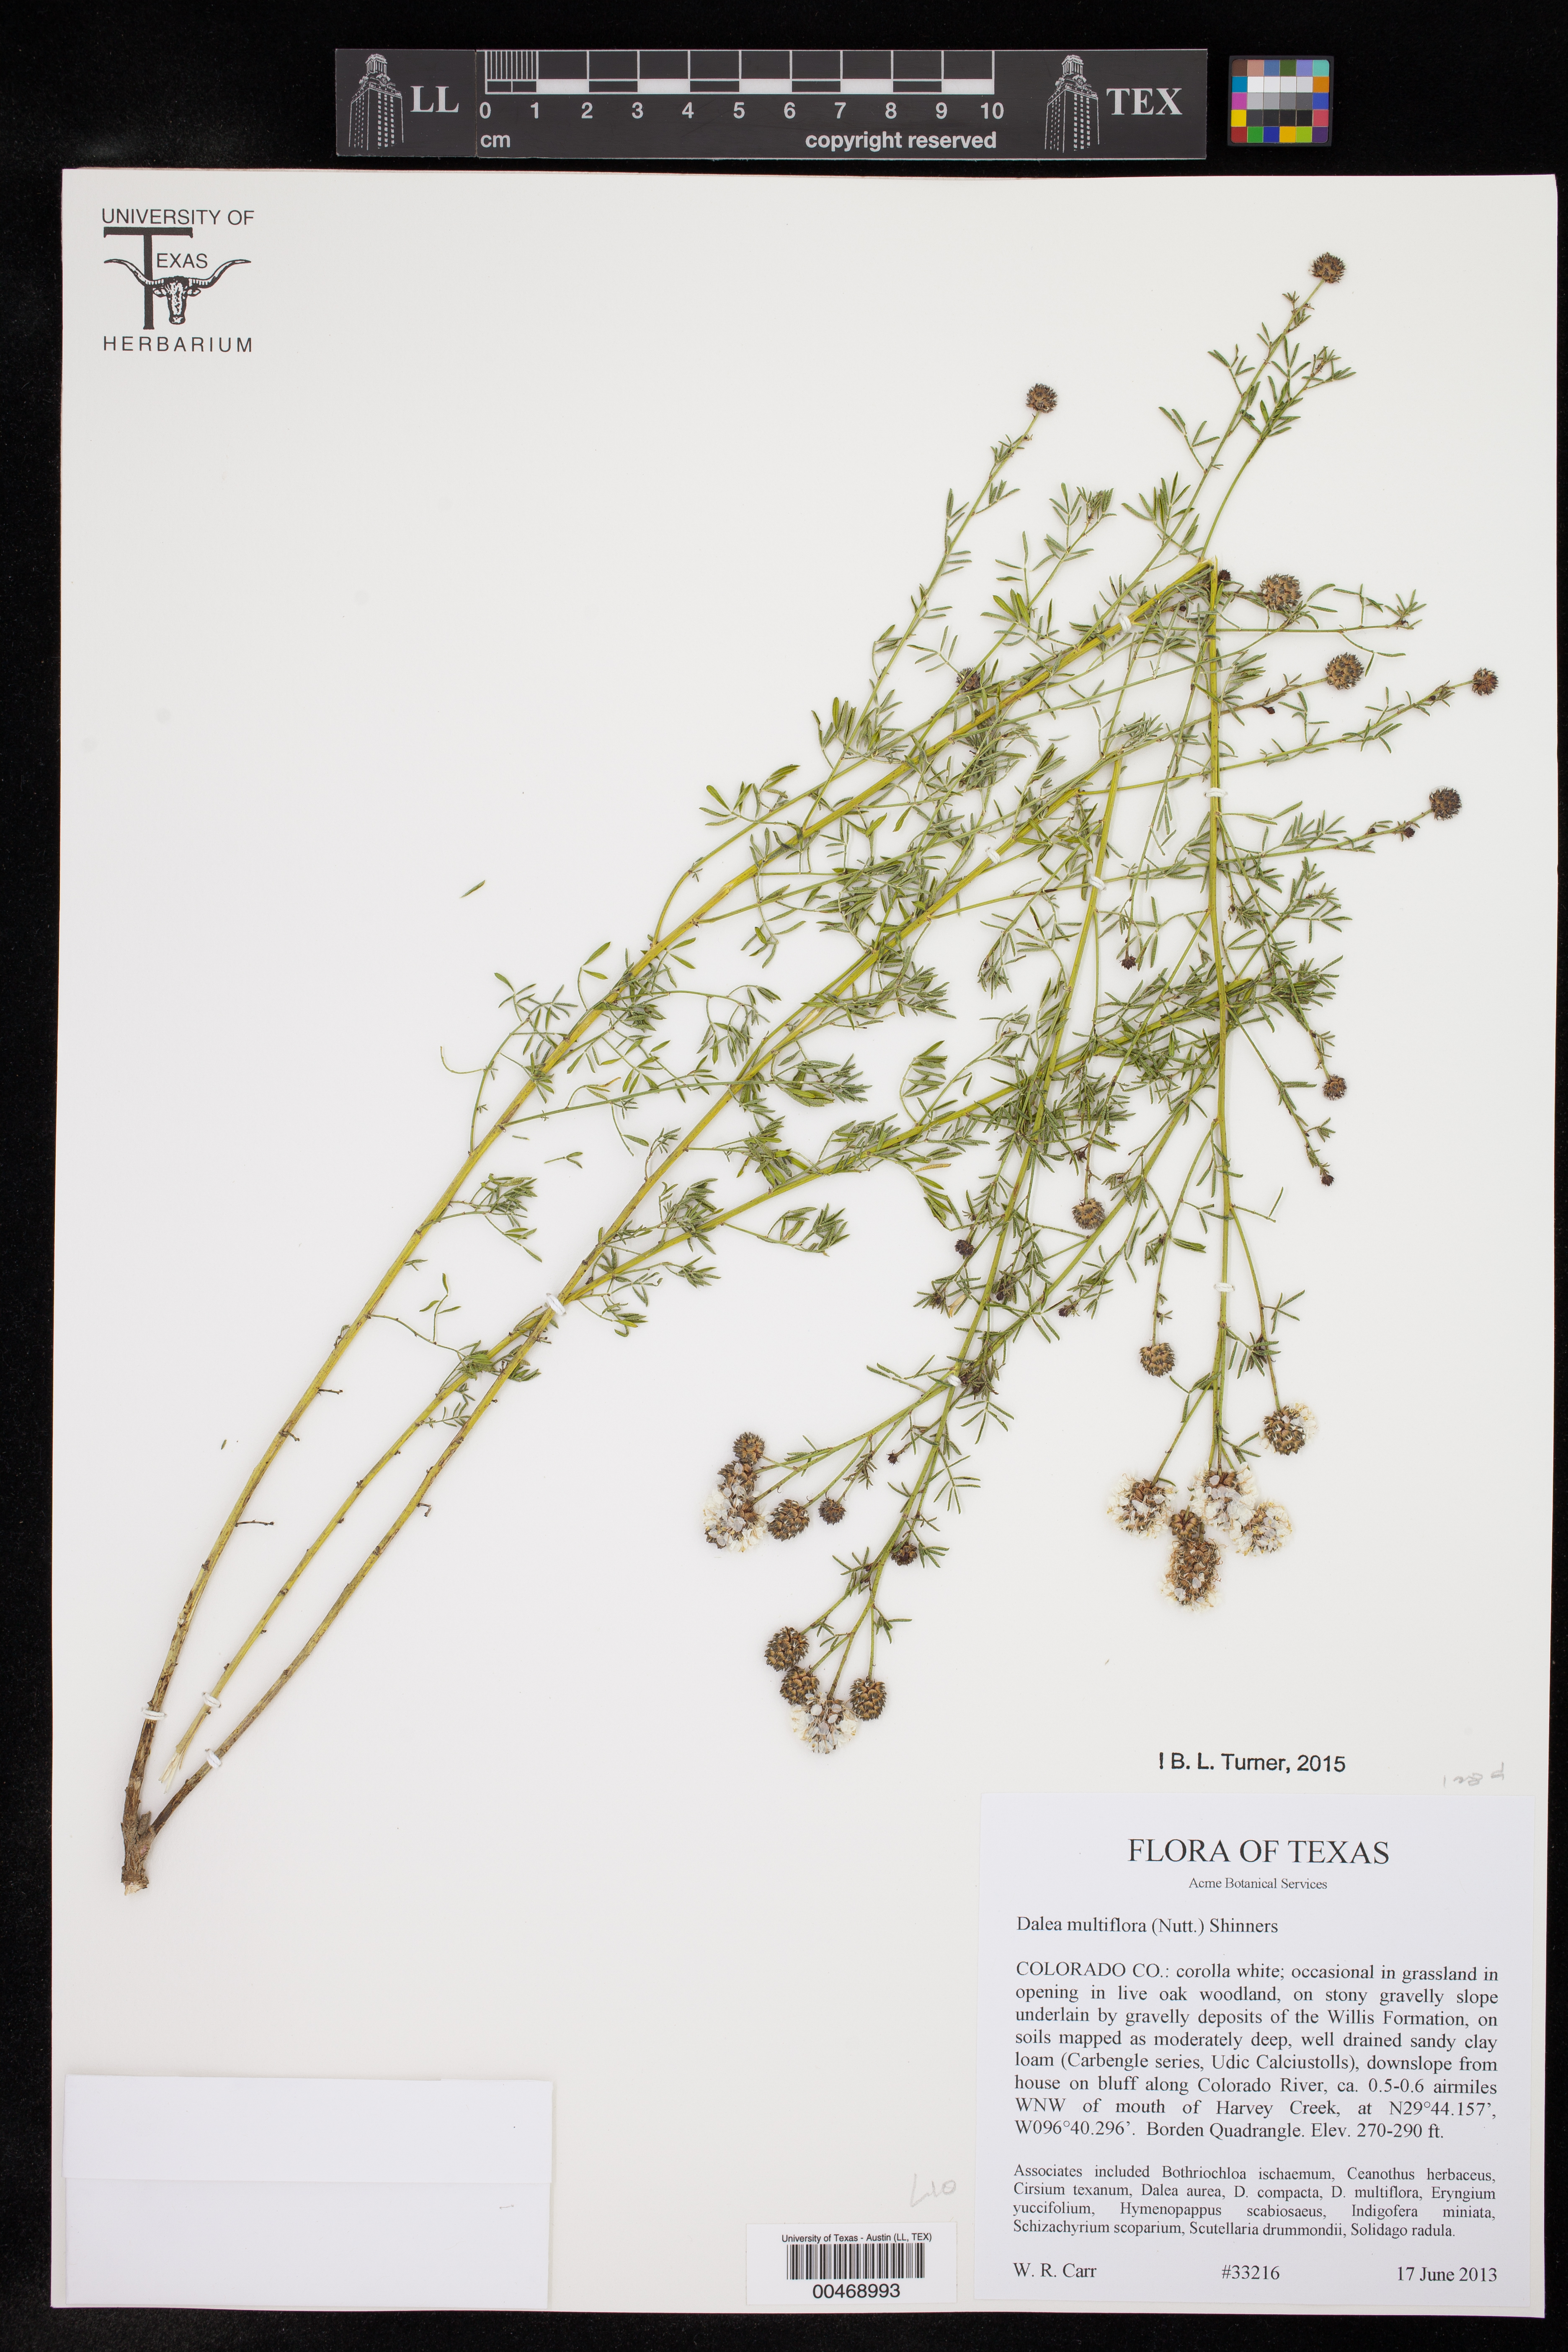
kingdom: Plantae
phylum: Tracheophyta
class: Magnoliopsida
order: Fabales
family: Fabaceae
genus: Dalea
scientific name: Dalea multiflora
